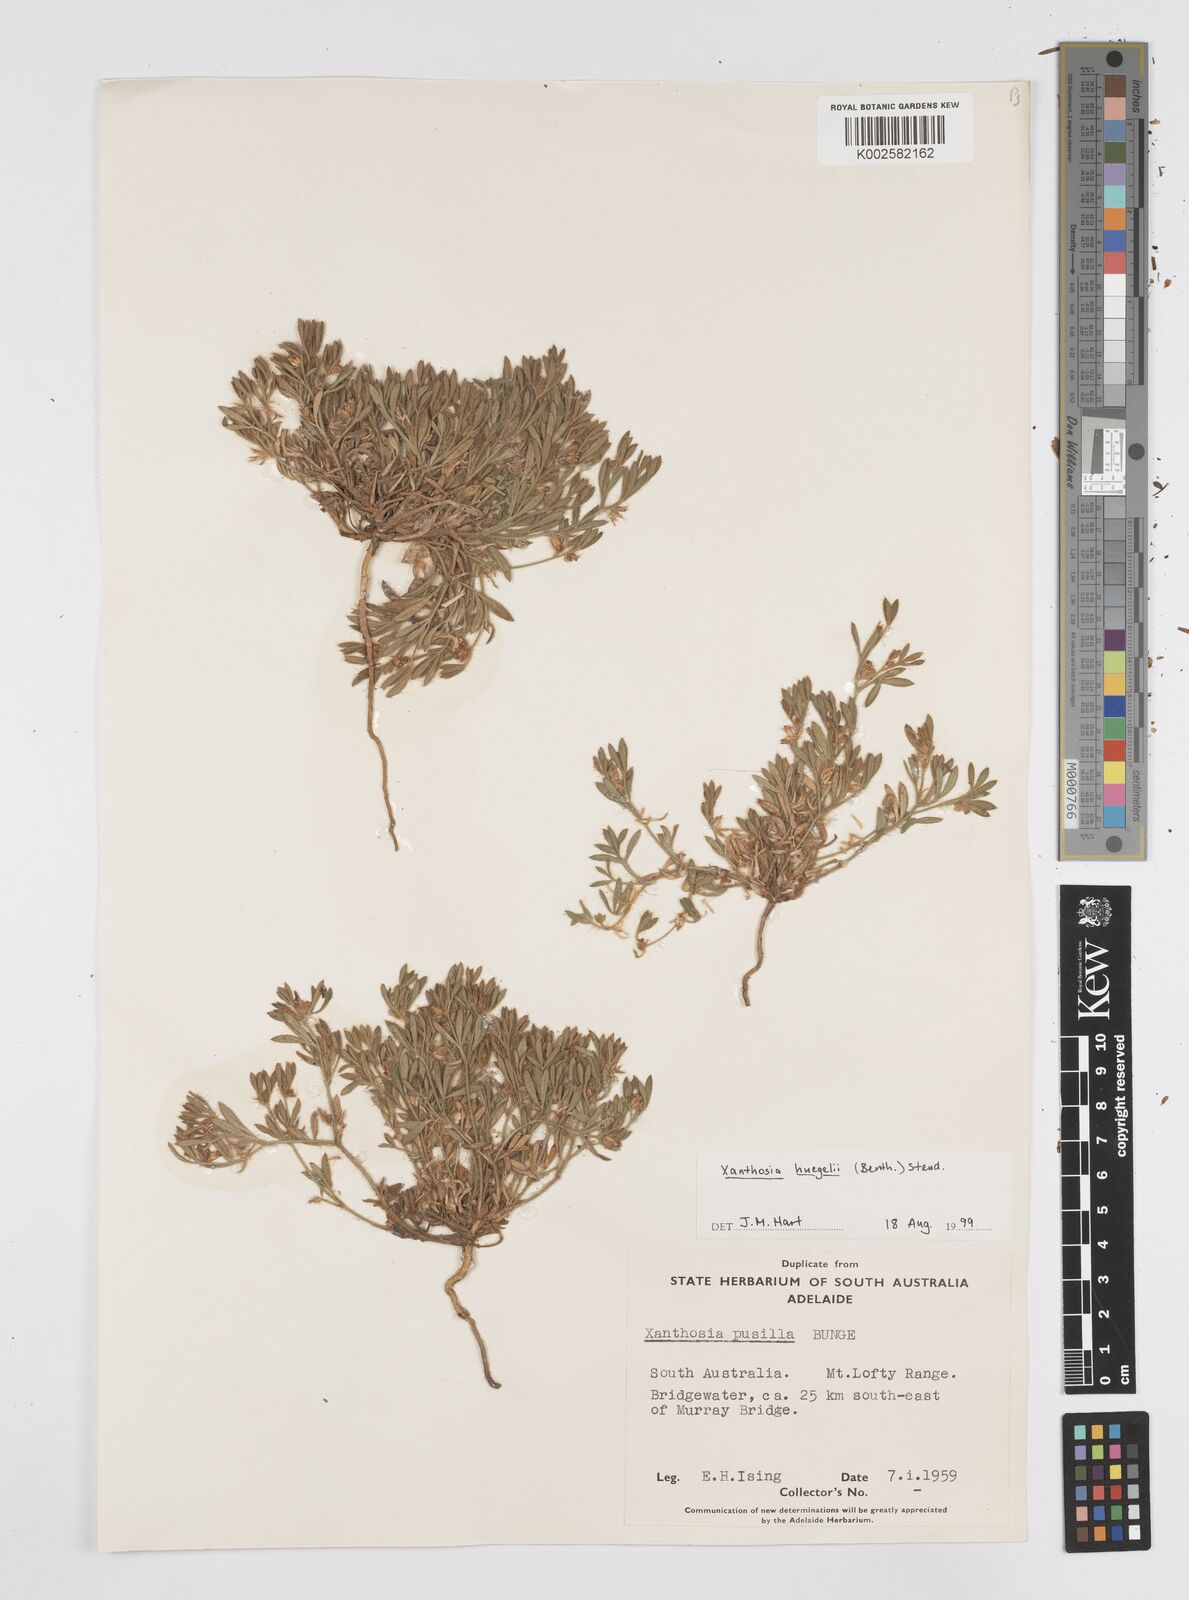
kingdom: Plantae
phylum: Tracheophyta
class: Magnoliopsida
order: Apiales
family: Apiaceae
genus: Xanthosia
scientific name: Xanthosia huegelii
